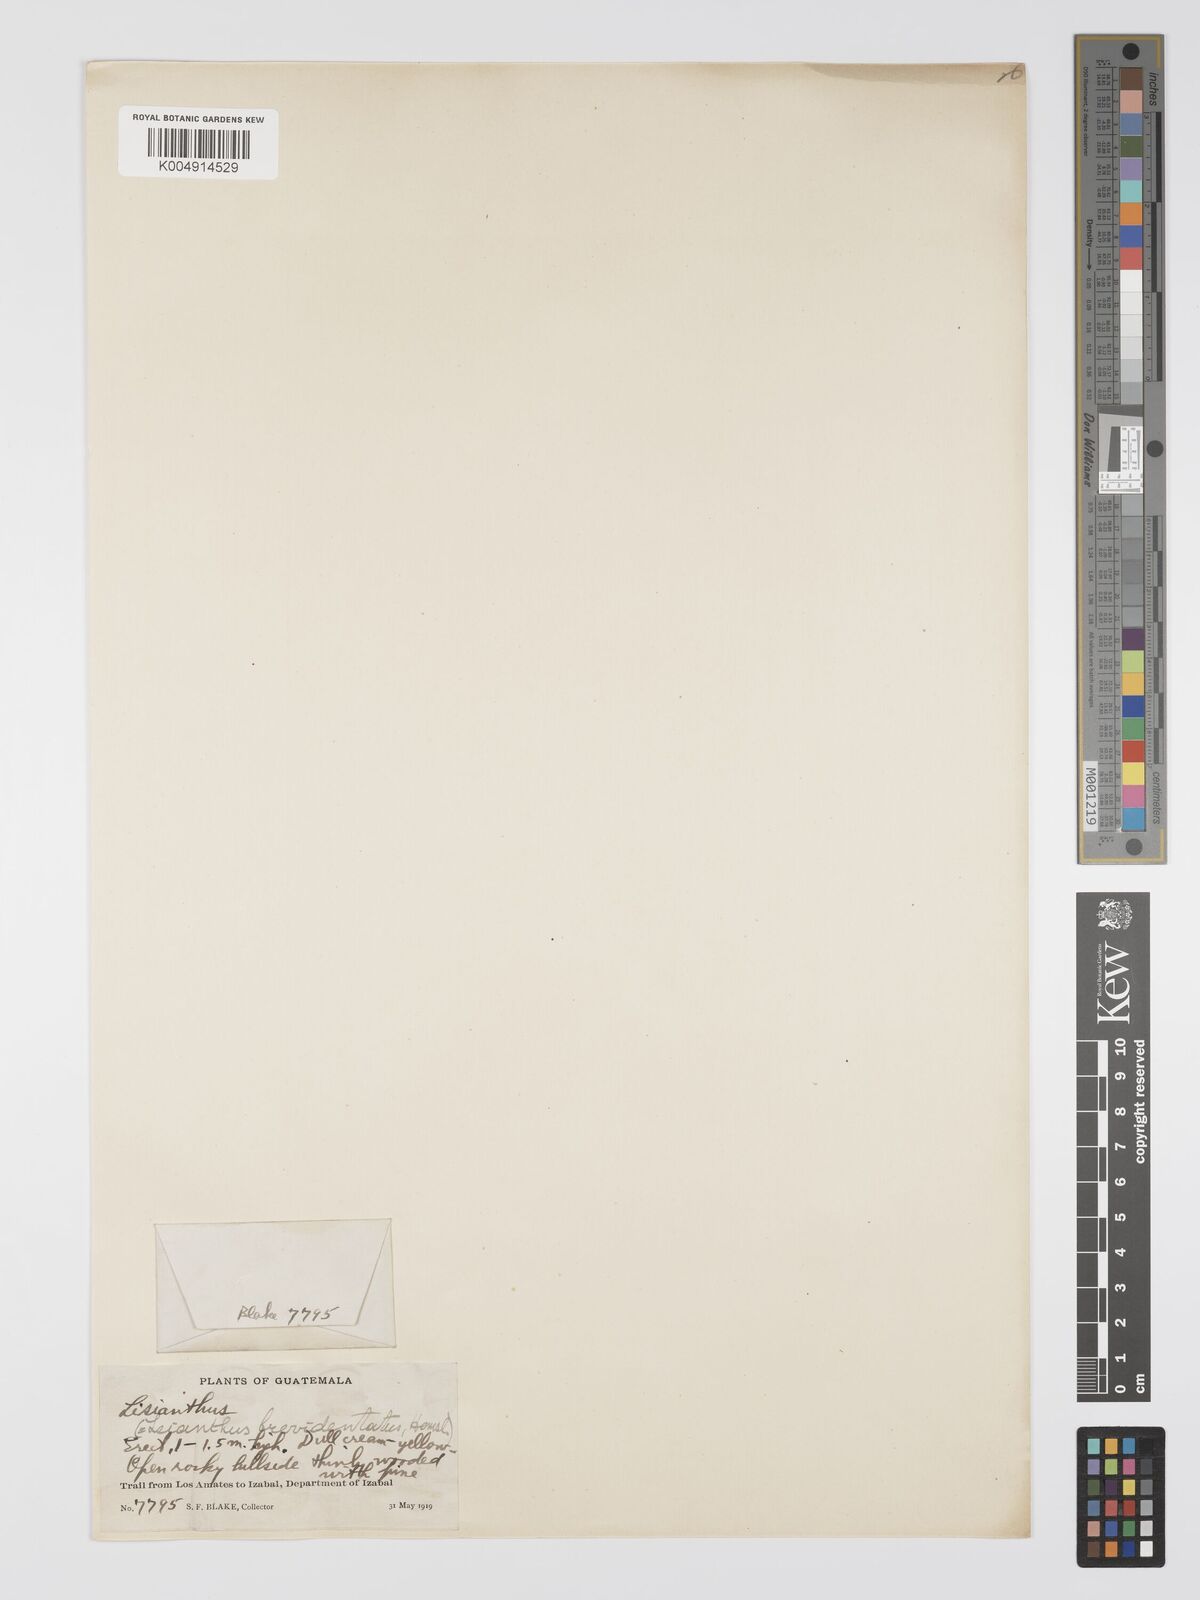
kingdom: Plantae
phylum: Tracheophyta
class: Magnoliopsida
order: Gentianales
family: Gentianaceae
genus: Lisianthius
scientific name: Lisianthius
